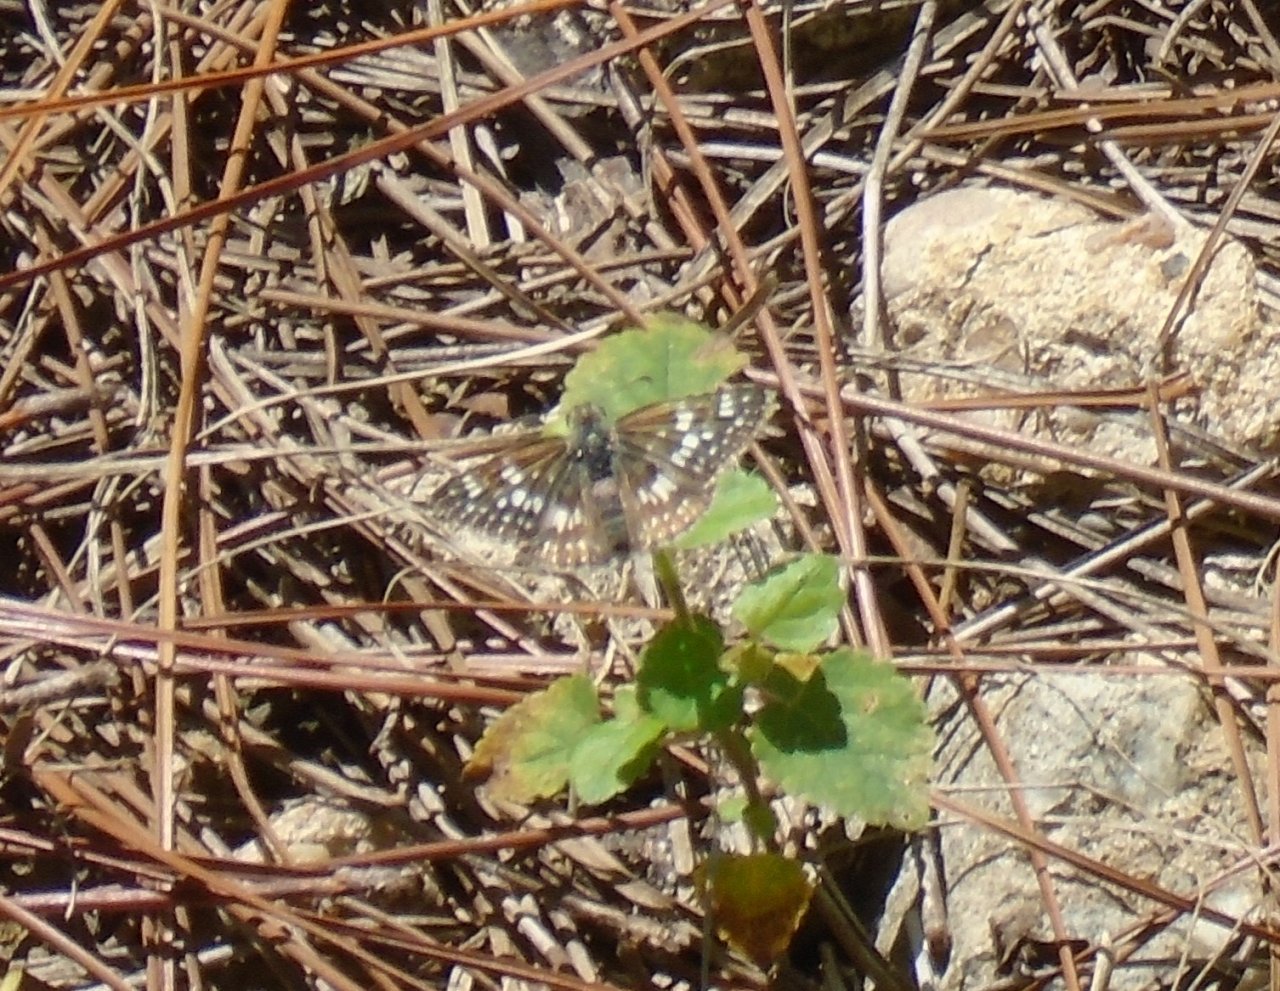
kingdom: Animalia
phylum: Arthropoda
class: Insecta
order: Lepidoptera
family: Hesperiidae
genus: Pyrgus
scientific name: Pyrgus communis
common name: Common Checkered-Skipper
